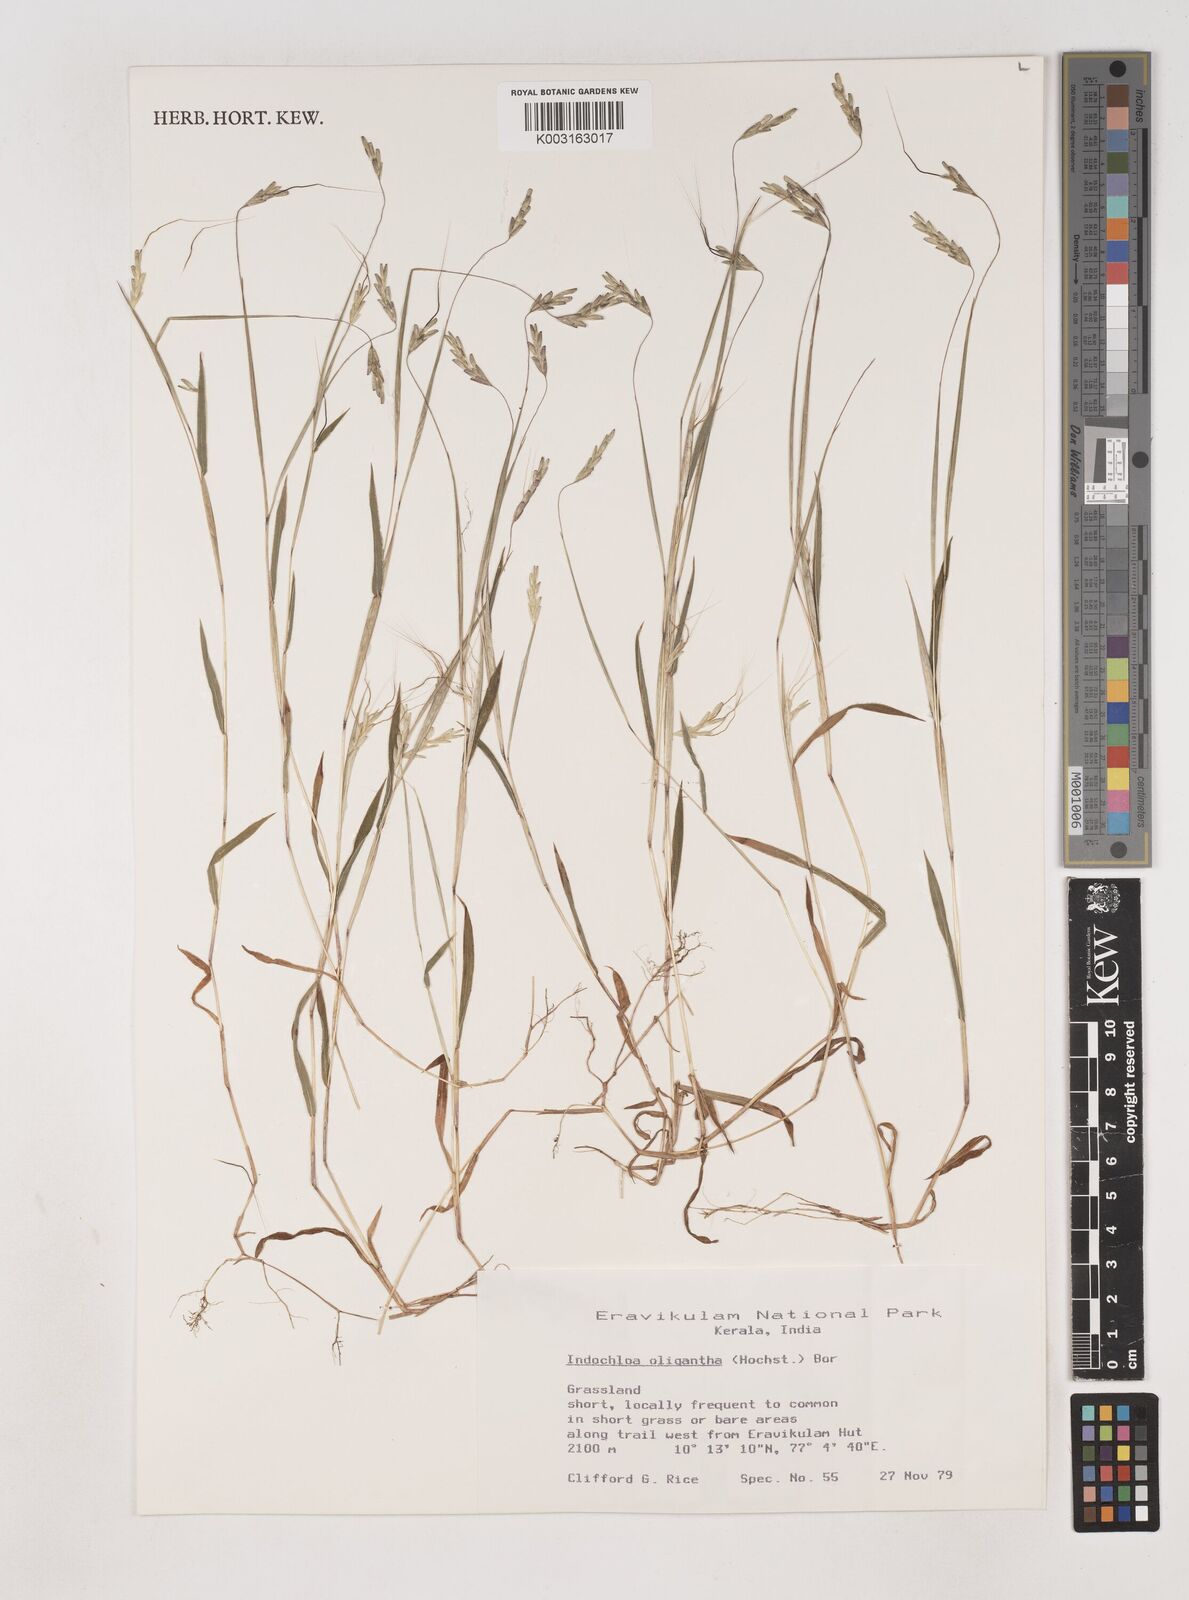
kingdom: Plantae
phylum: Tracheophyta
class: Liliopsida
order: Poales
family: Poaceae
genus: Euclasta
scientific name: Euclasta oligantha
